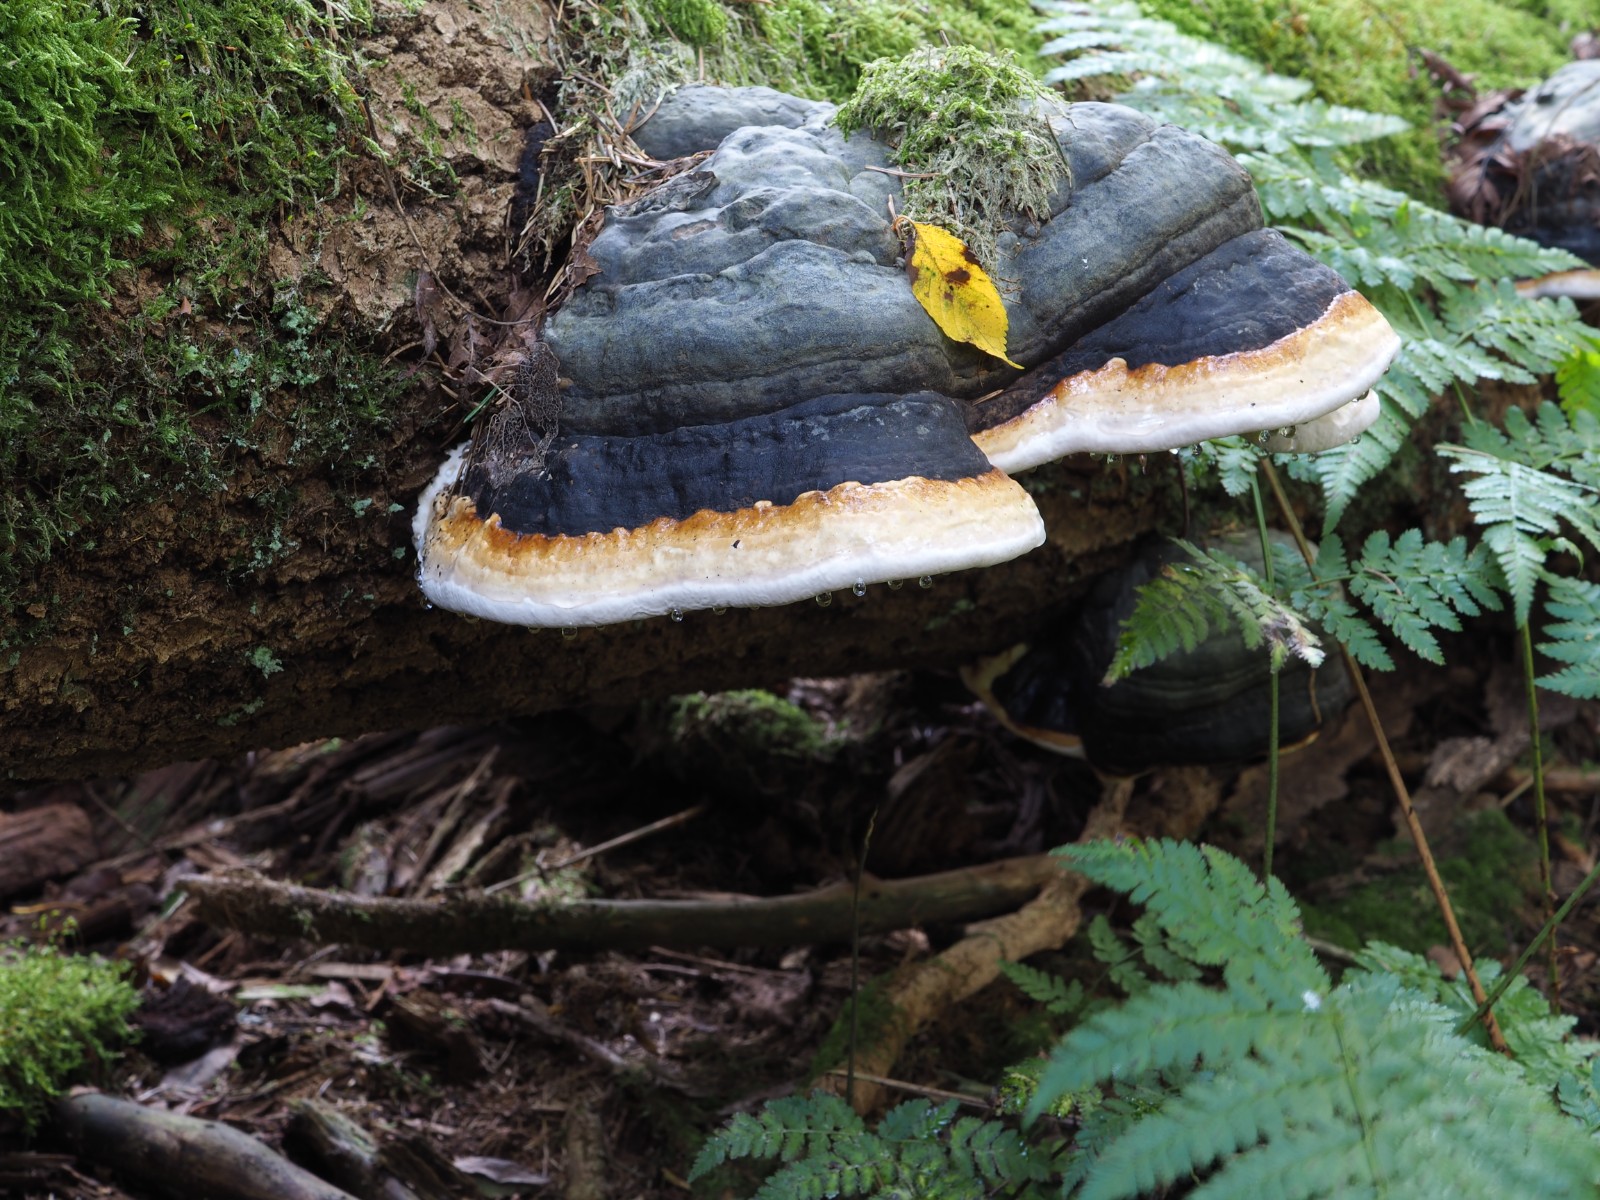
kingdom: Fungi
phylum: Basidiomycota
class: Agaricomycetes
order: Polyporales
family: Fomitopsidaceae
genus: Fomitopsis
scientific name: Fomitopsis pinicola
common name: randbæltet hovporesvamp
